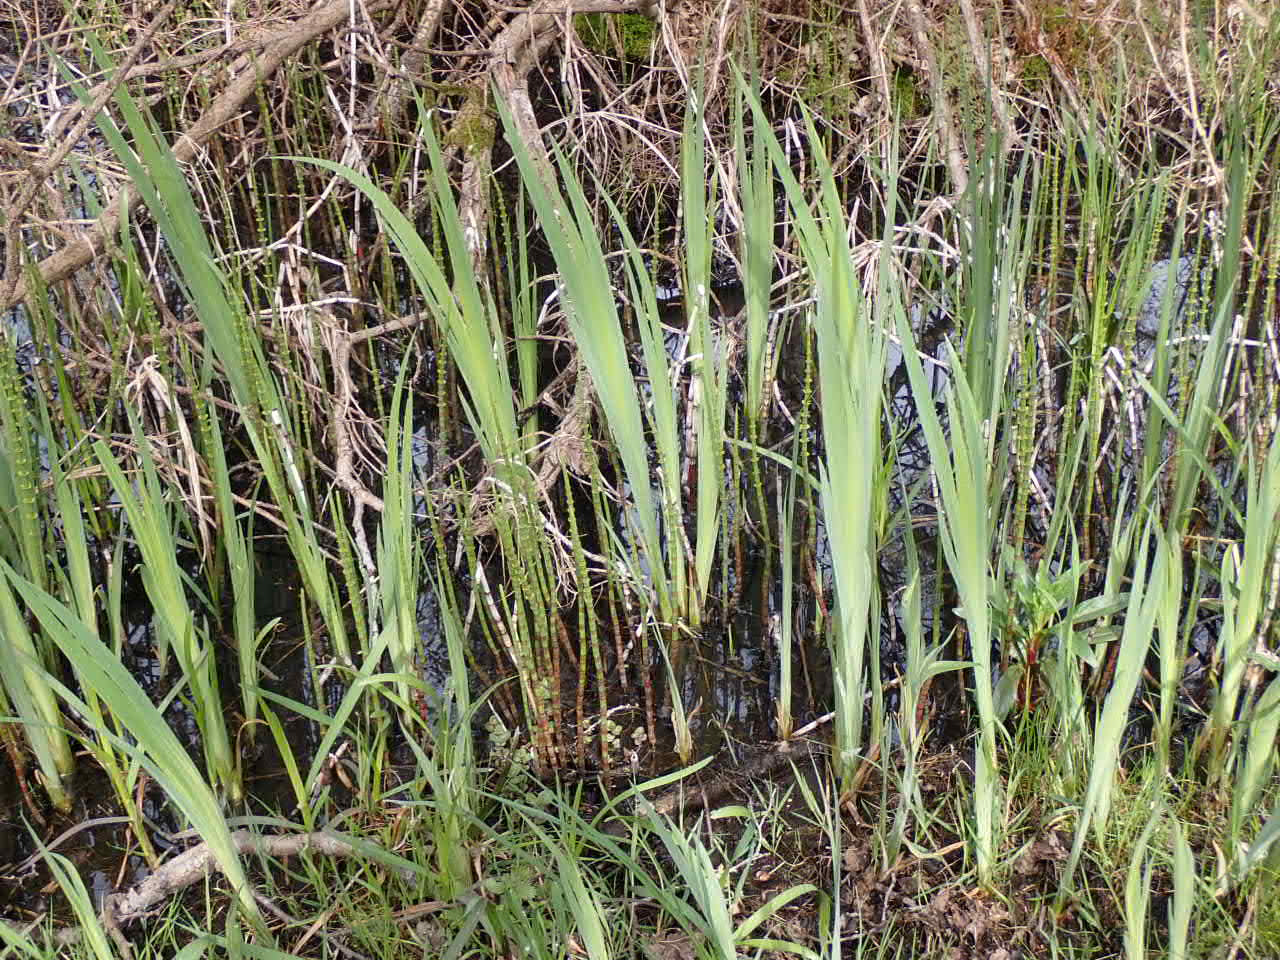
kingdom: Plantae
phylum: Tracheophyta
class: Liliopsida
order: Asparagales
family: Iridaceae
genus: Iris
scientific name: Iris pseudacorus
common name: Gul iris
